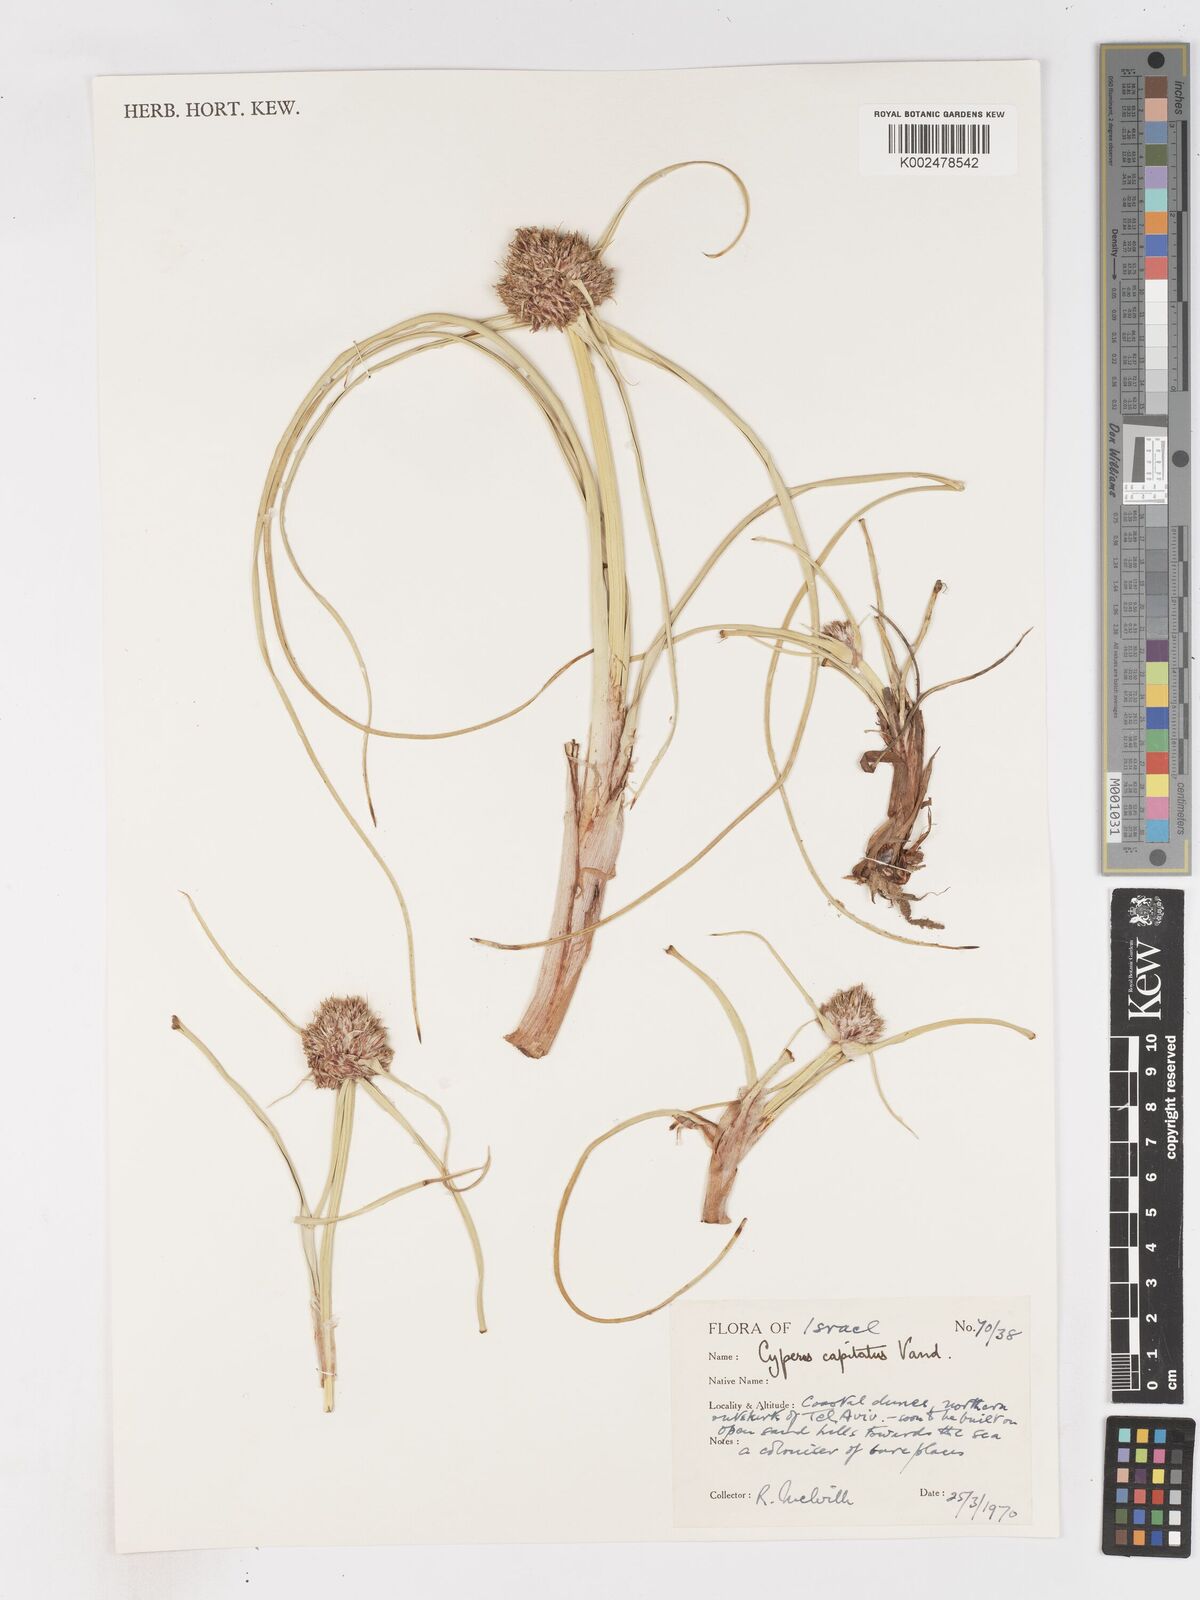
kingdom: Plantae
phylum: Tracheophyta
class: Liliopsida
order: Poales
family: Cyperaceae
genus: Cyperus
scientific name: Cyperus capitatus
